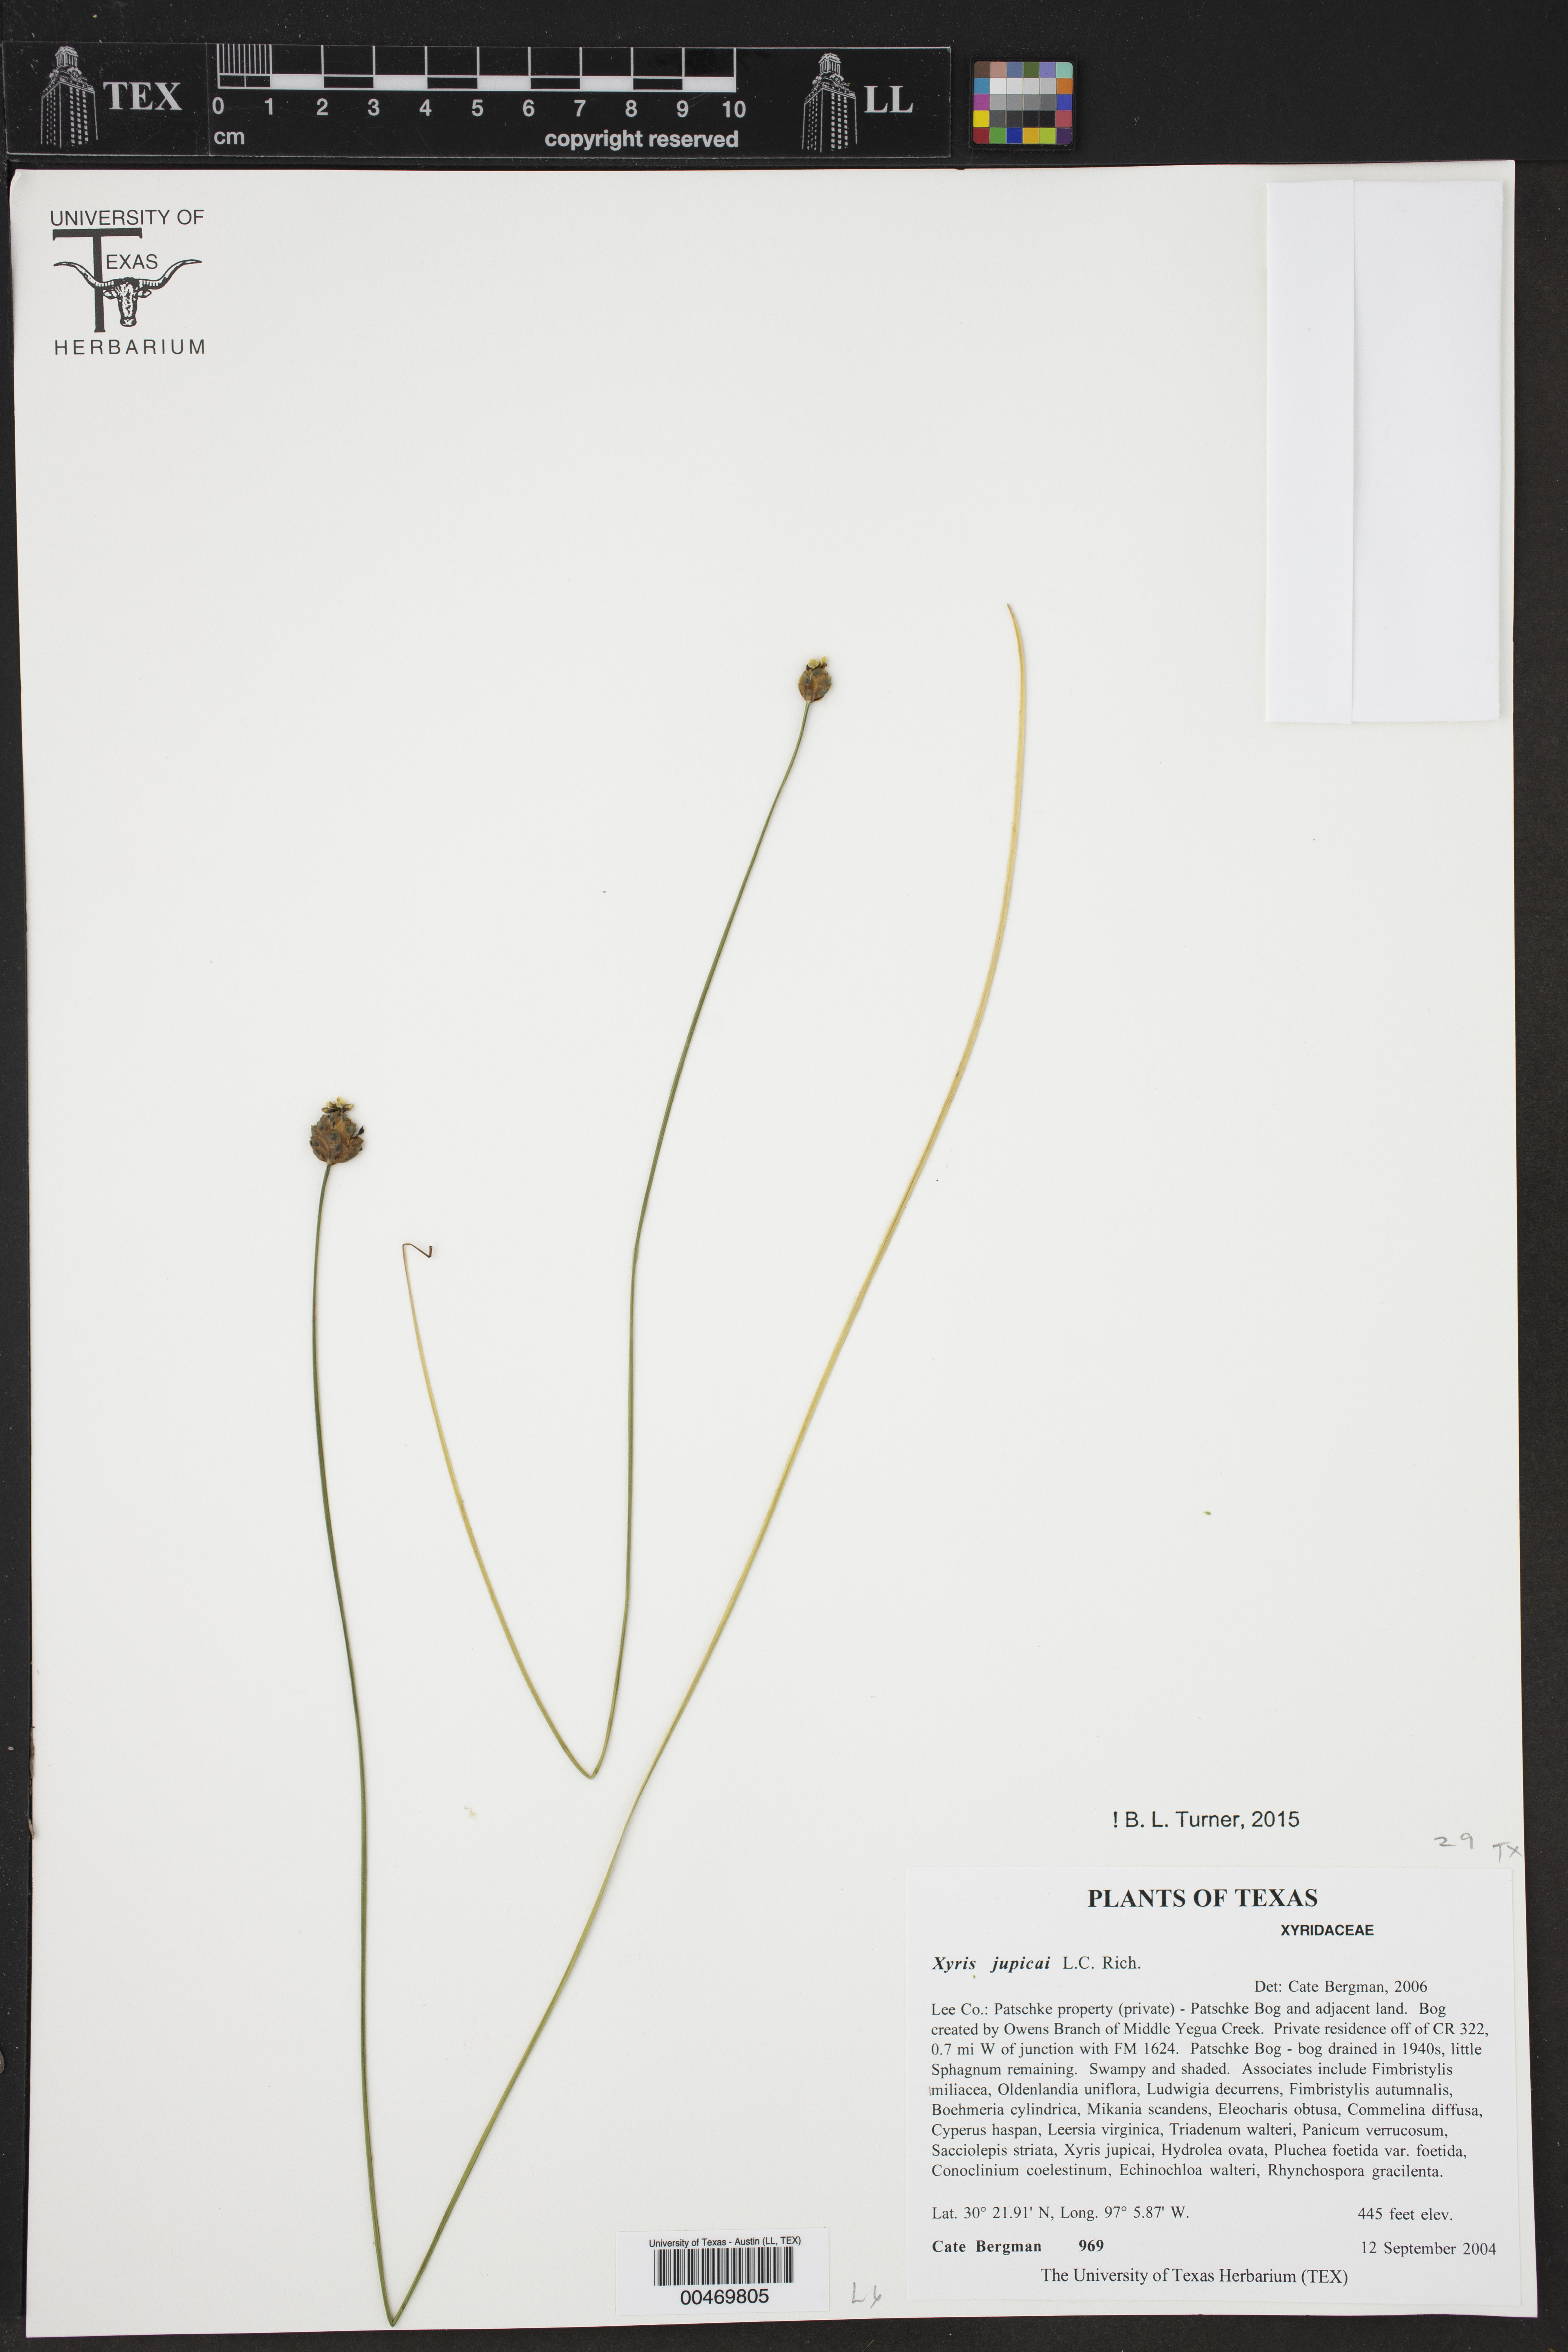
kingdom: Plantae
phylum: Tracheophyta
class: Liliopsida
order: Poales
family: Xyridaceae
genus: Xyris
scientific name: Xyris jupicai
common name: Richard's yelloweyed grass
